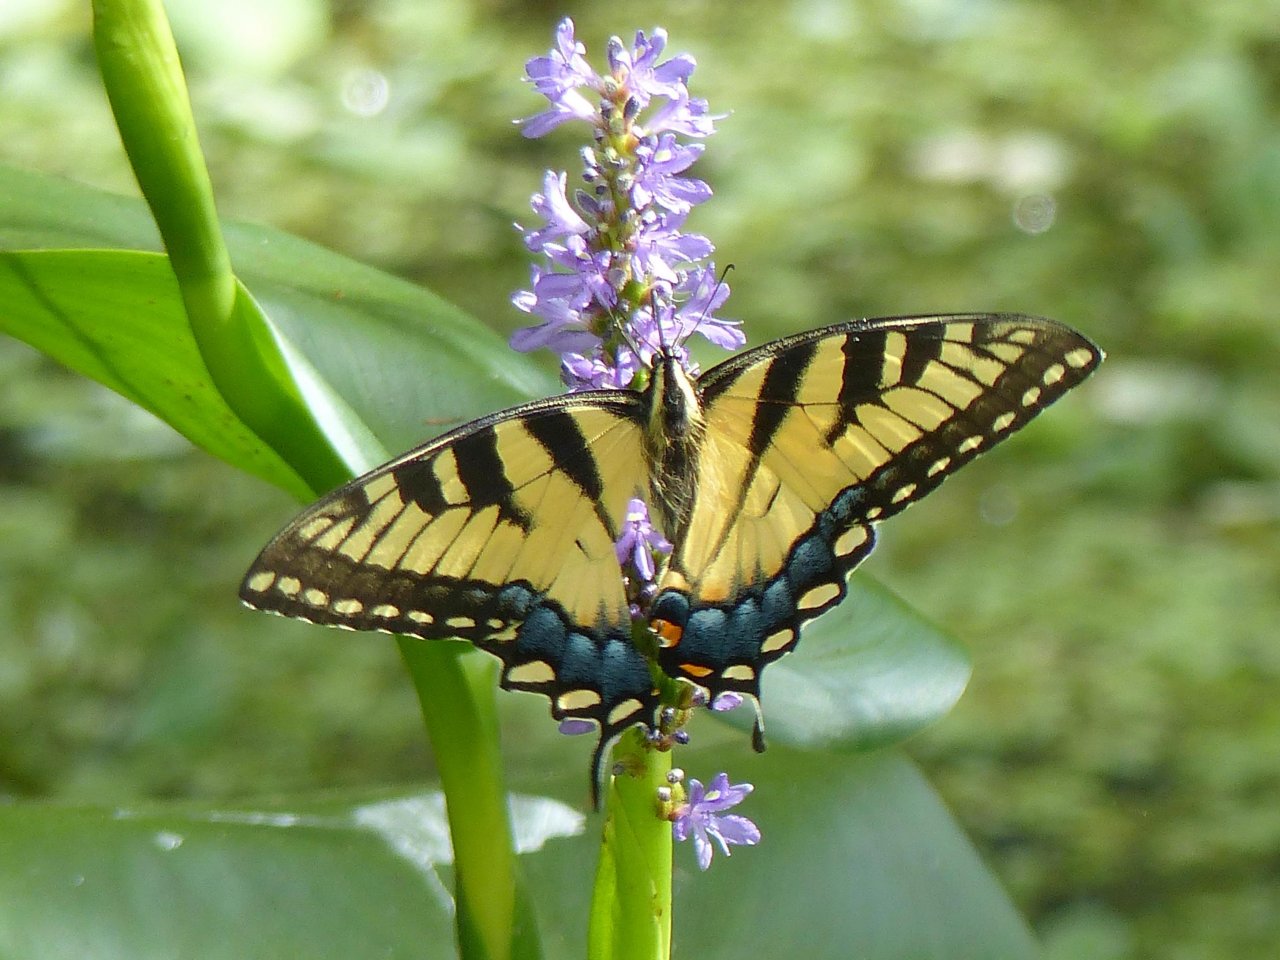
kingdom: Animalia
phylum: Arthropoda
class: Insecta
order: Lepidoptera
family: Papilionidae
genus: Pterourus
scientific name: Pterourus glaucus
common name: Eastern Tiger Swallowtail
